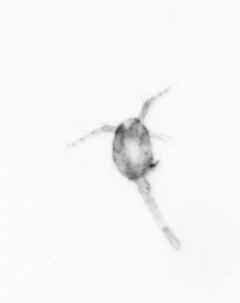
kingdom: Animalia
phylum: Arthropoda
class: Copepoda
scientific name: Copepoda
